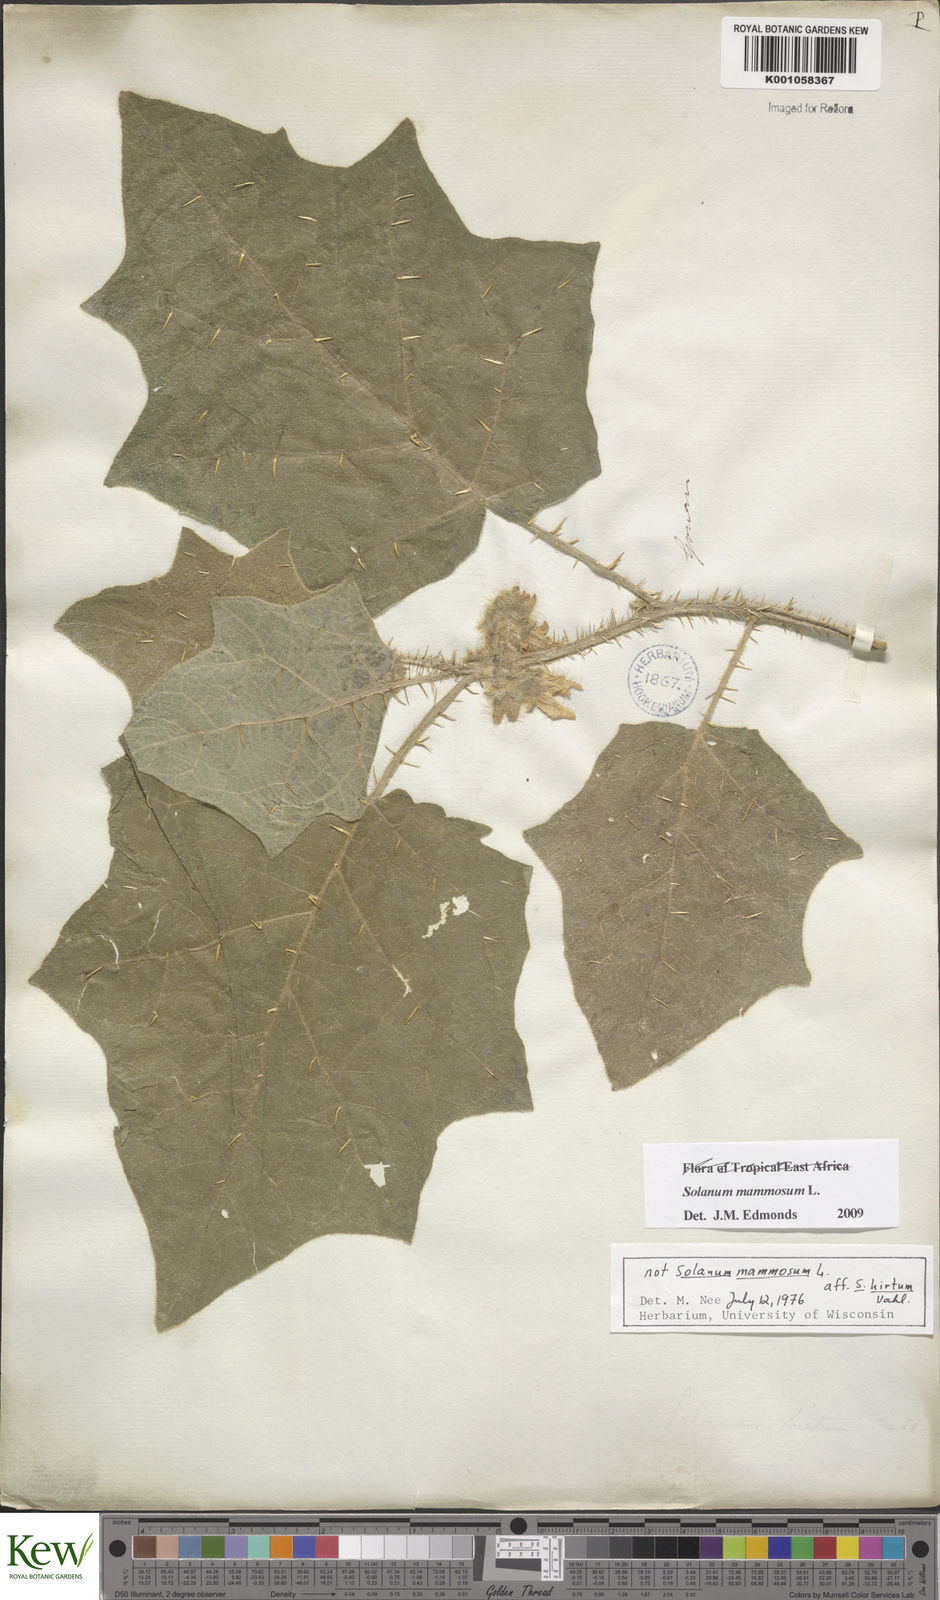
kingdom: Plantae
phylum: Tracheophyta
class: Magnoliopsida
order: Solanales
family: Solanaceae
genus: Solanum
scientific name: Solanum mammosum
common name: Nipple fruit
